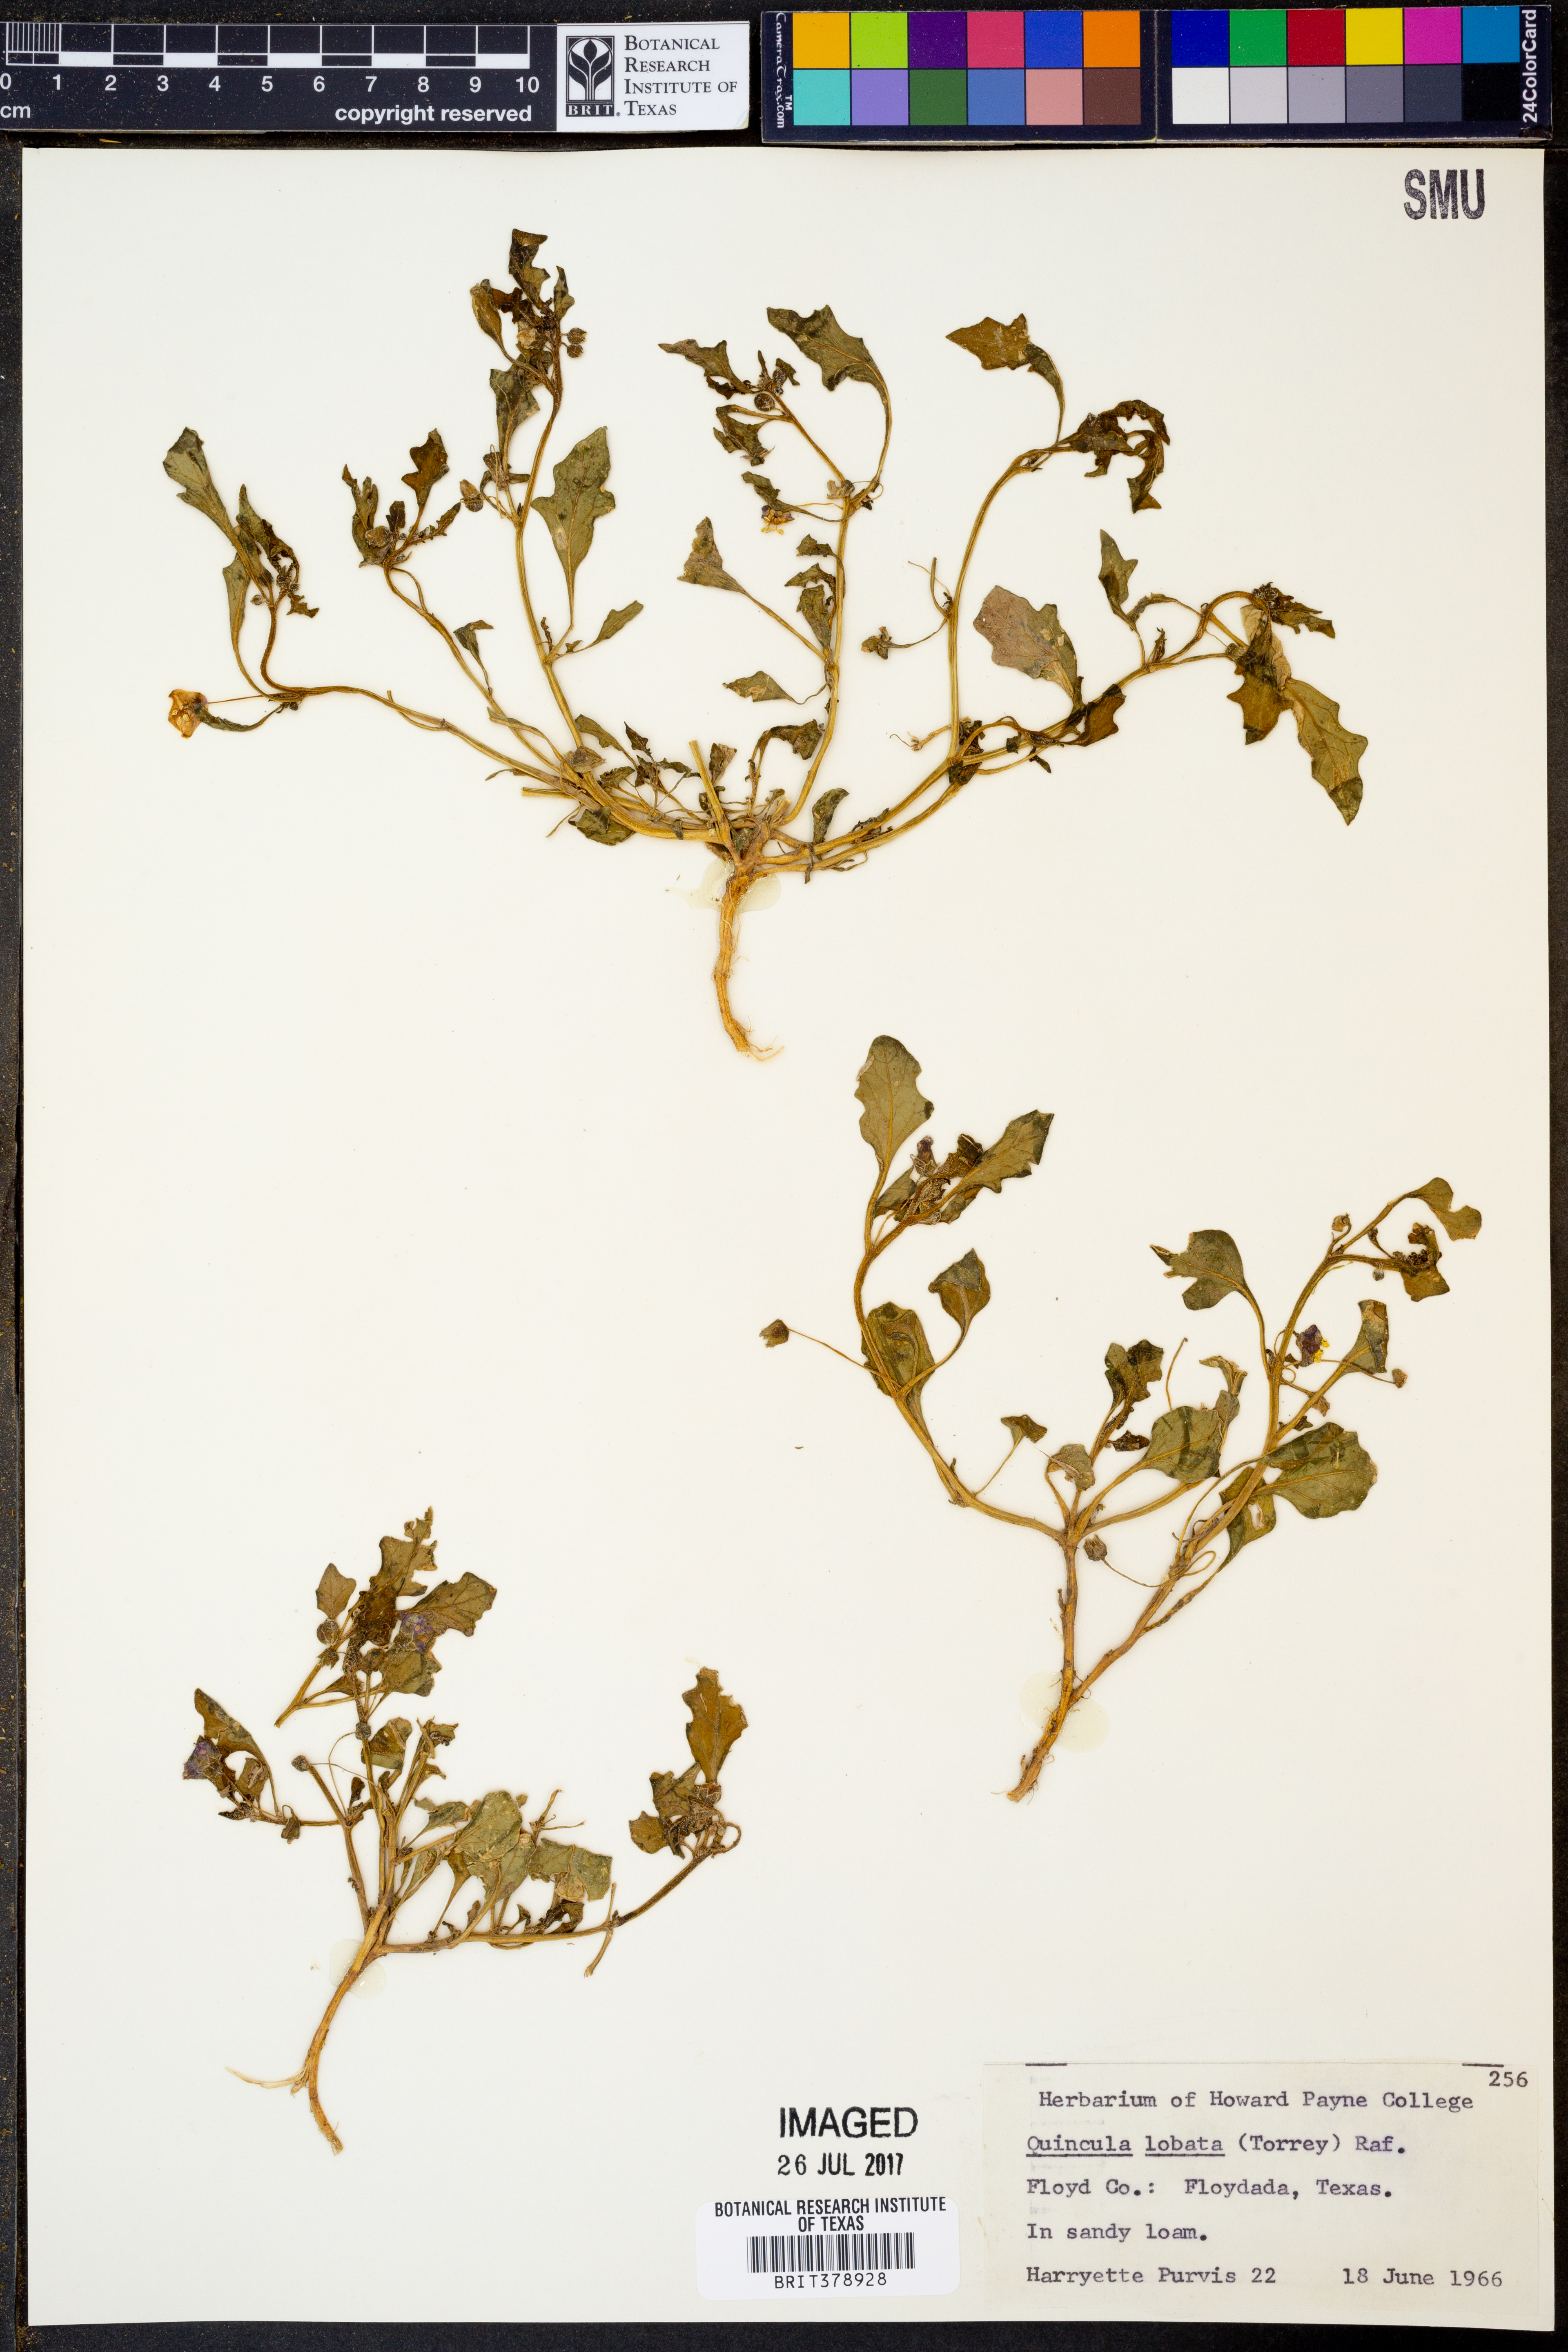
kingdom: Plantae
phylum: Tracheophyta
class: Magnoliopsida
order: Solanales
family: Solanaceae
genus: Quincula
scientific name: Quincula lobata
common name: Purple-ground-cherry
